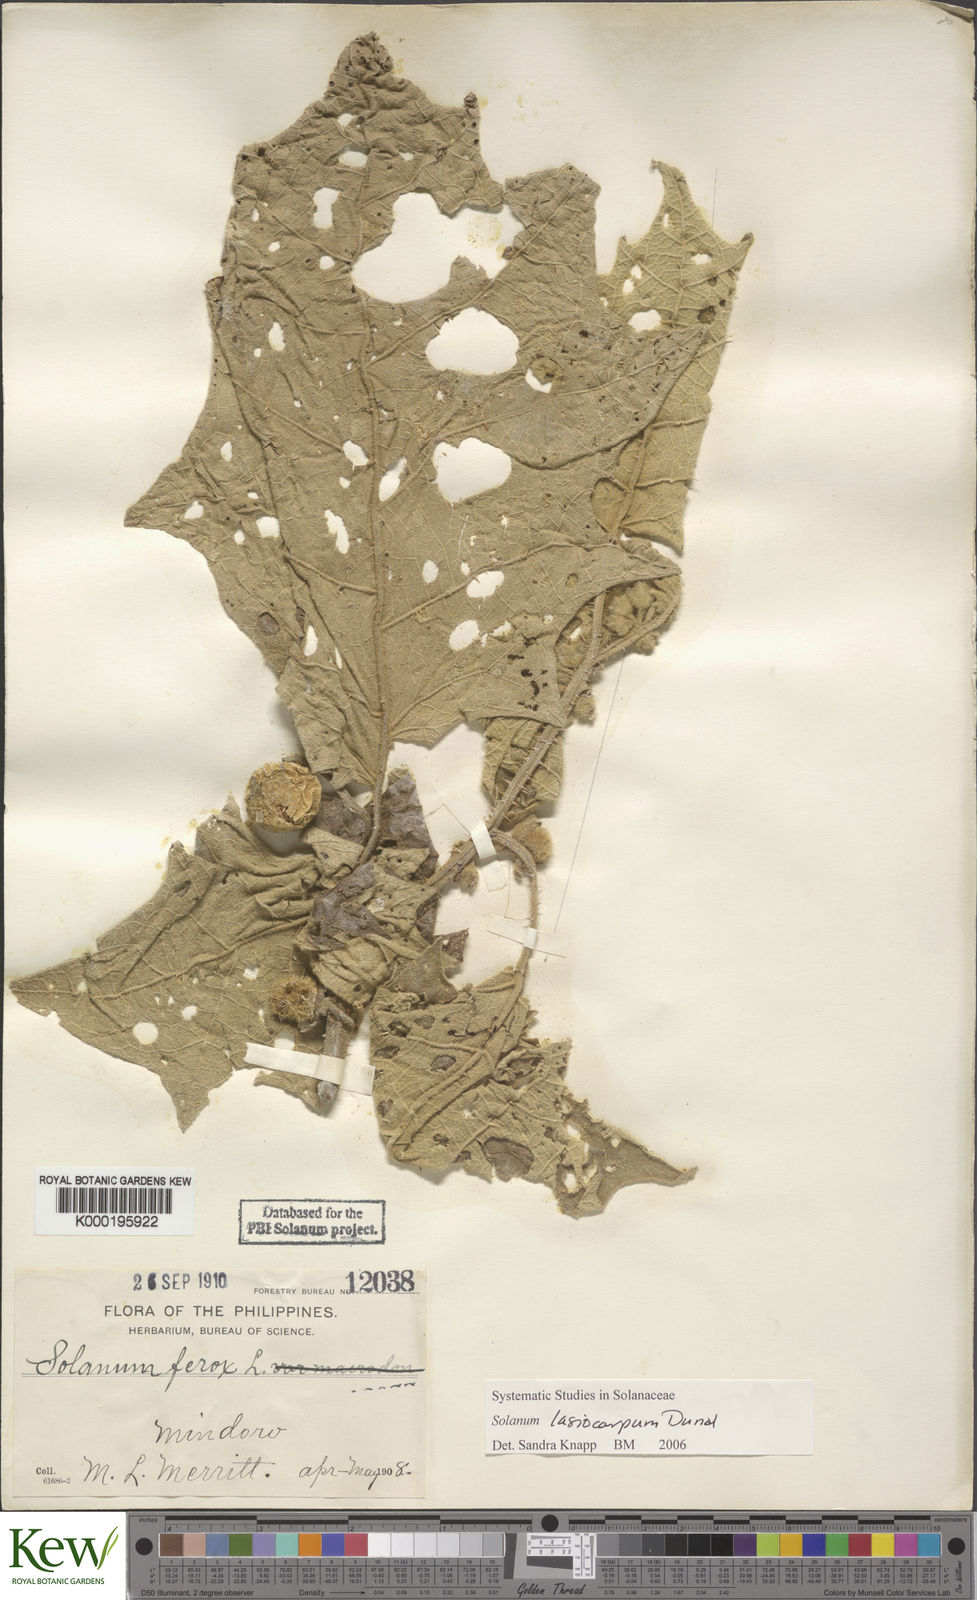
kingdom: Plantae
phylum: Tracheophyta
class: Magnoliopsida
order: Solanales
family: Solanaceae
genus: Solanum
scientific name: Solanum lasiocarpum
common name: Indian nightshade
